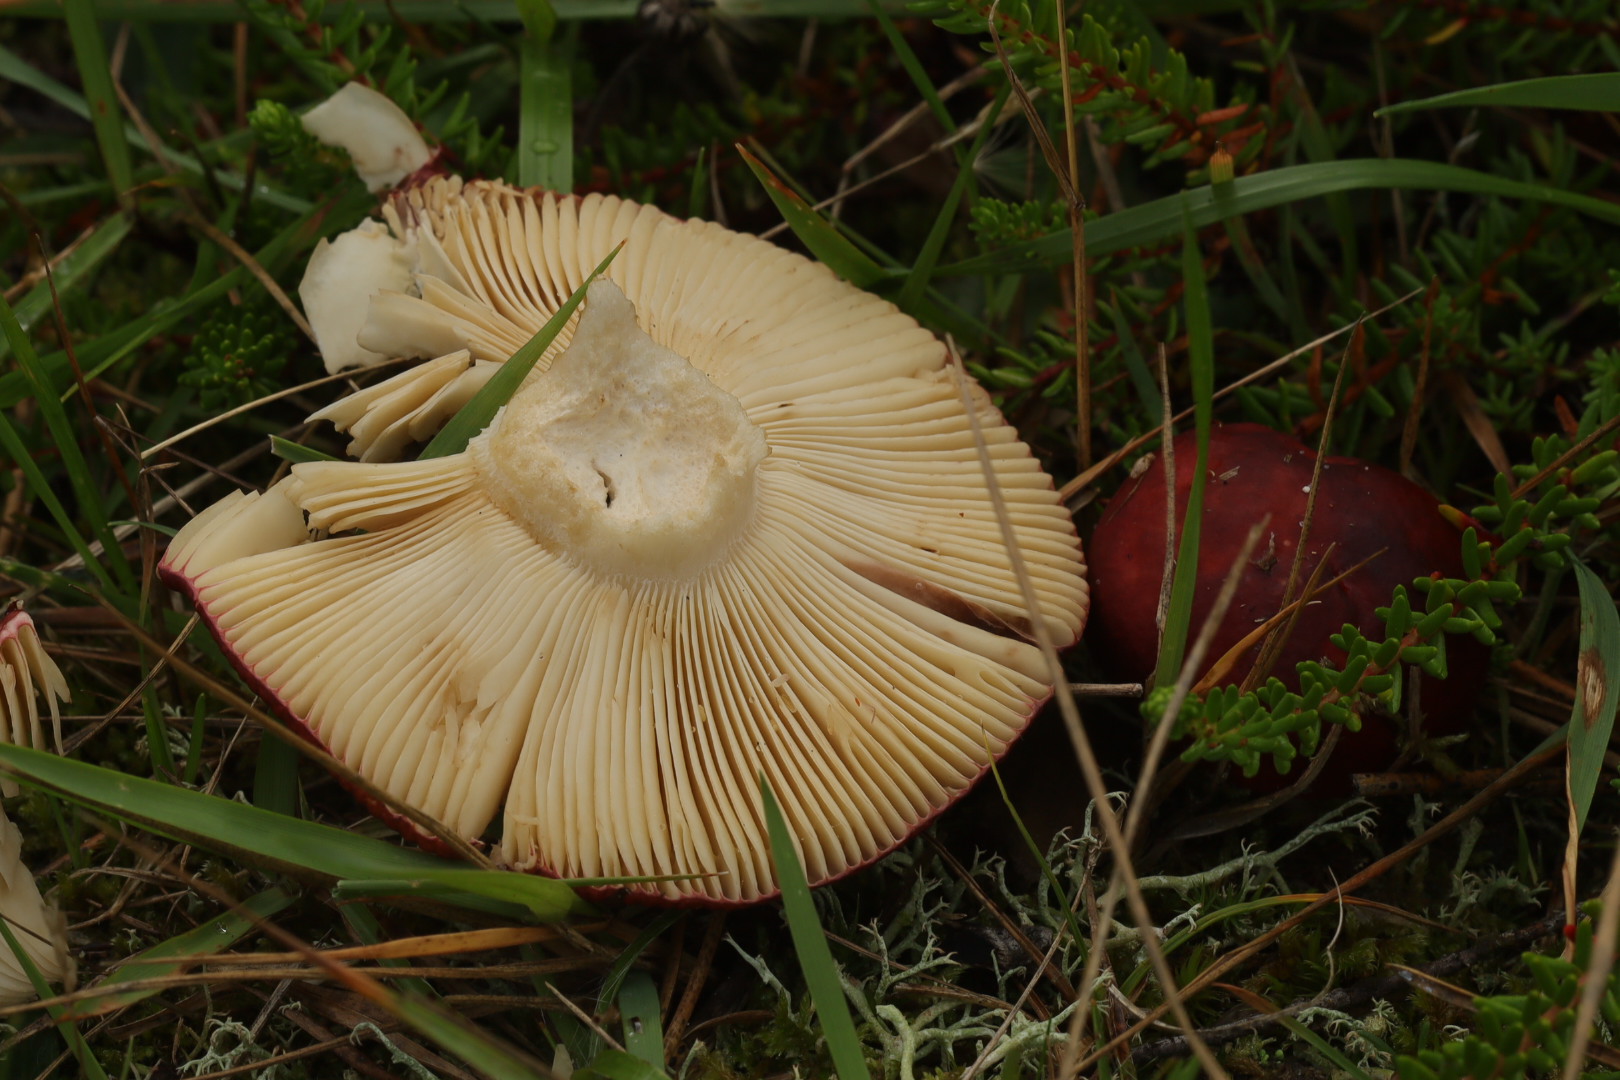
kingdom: Fungi
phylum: Basidiomycota
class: Agaricomycetes
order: Russulales
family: Russulaceae
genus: Russula
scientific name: Russula xerampelina
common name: hummer-skørhat
